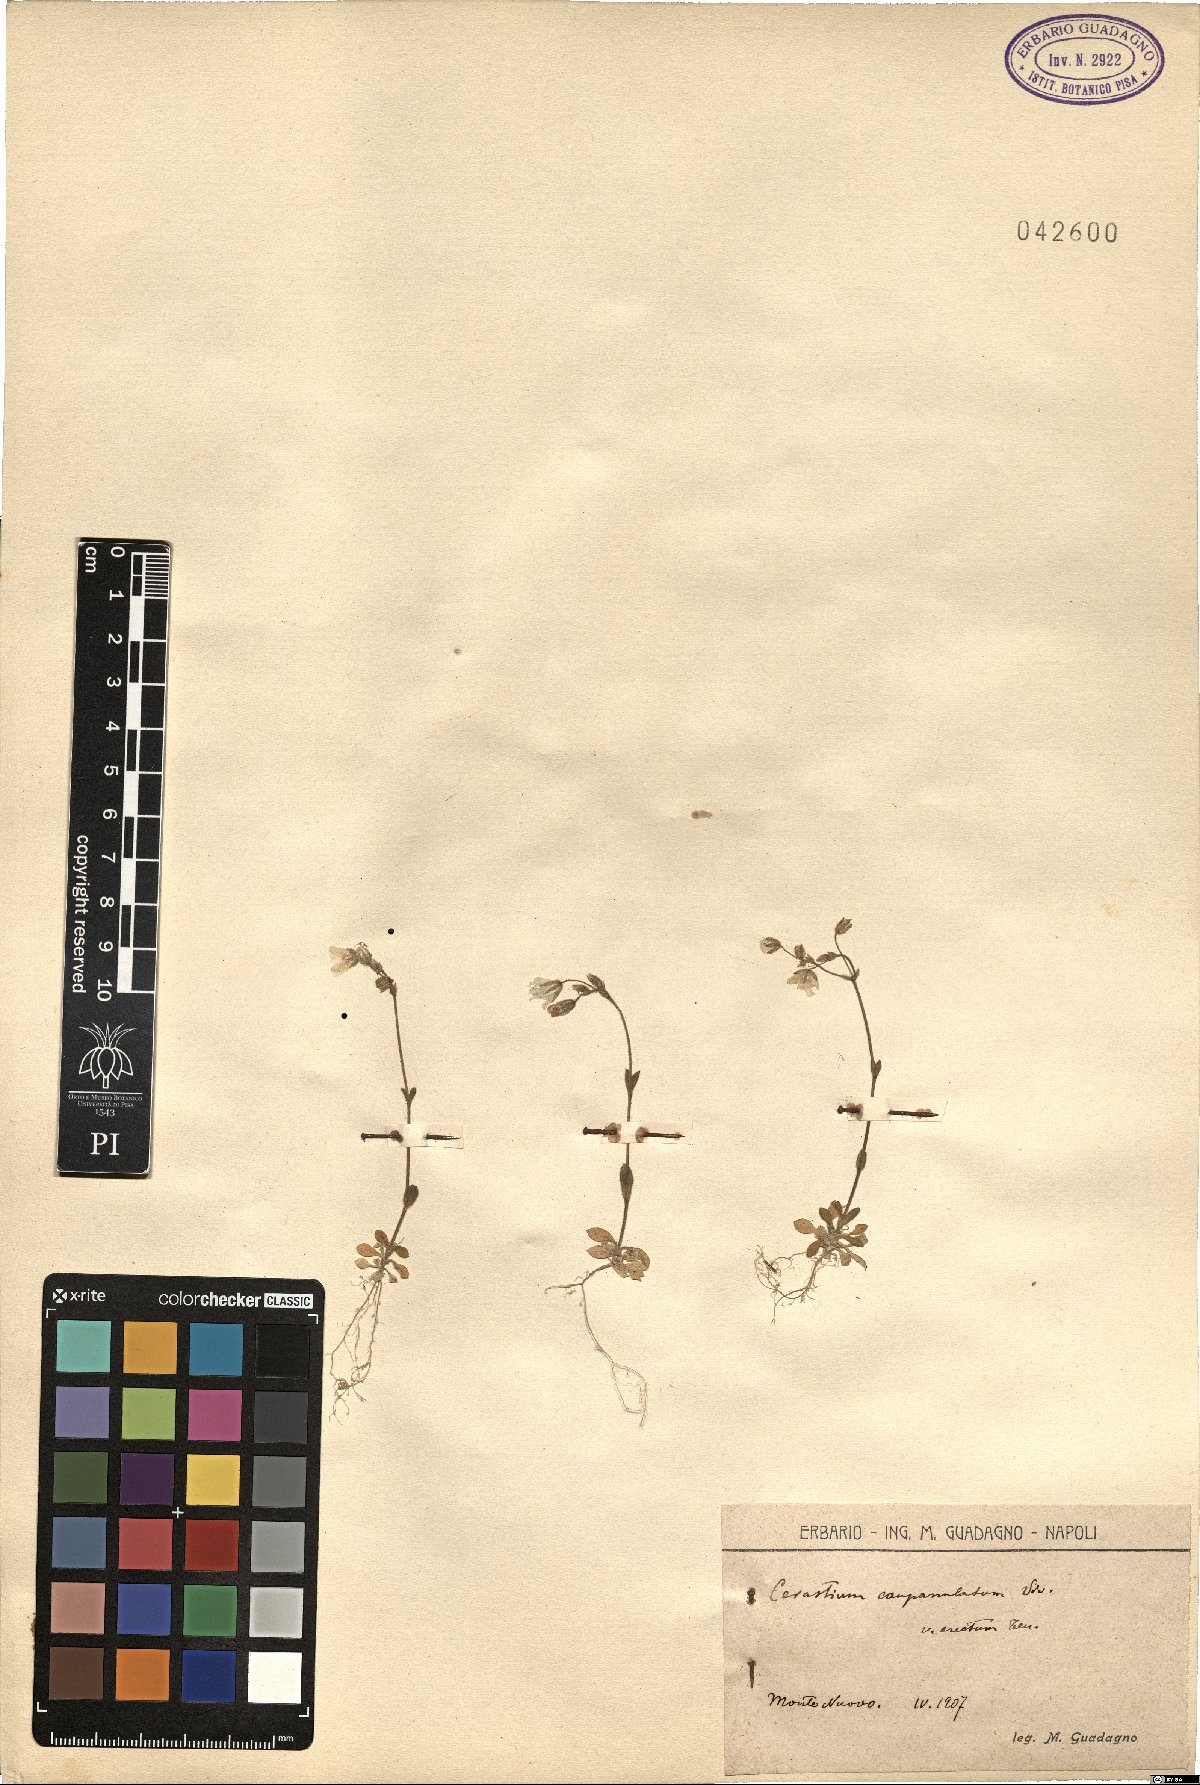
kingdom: Plantae
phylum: Tracheophyta
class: Magnoliopsida
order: Caryophyllales
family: Caryophyllaceae
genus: Cerastium
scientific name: Cerastium ligusticum
